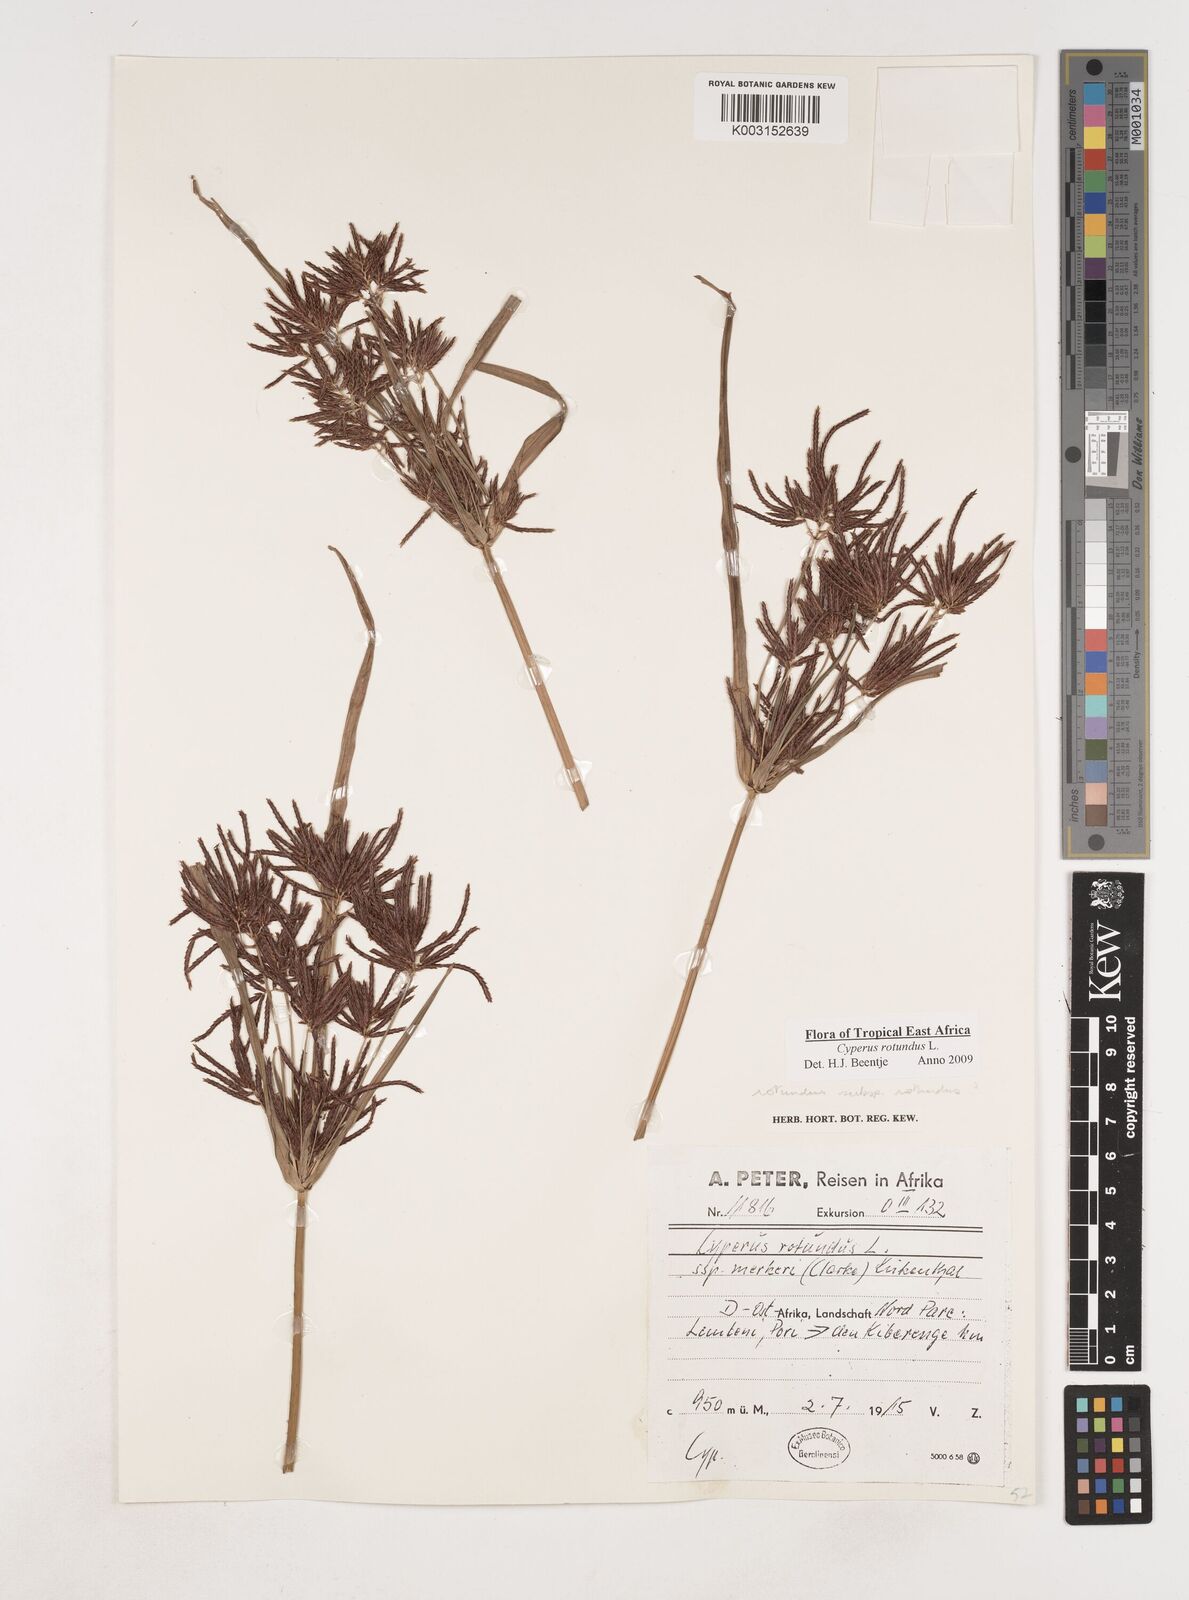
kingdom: Plantae
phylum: Tracheophyta
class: Liliopsida
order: Poales
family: Cyperaceae
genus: Cyperus
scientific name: Cyperus rotundus
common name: Nutgrass
